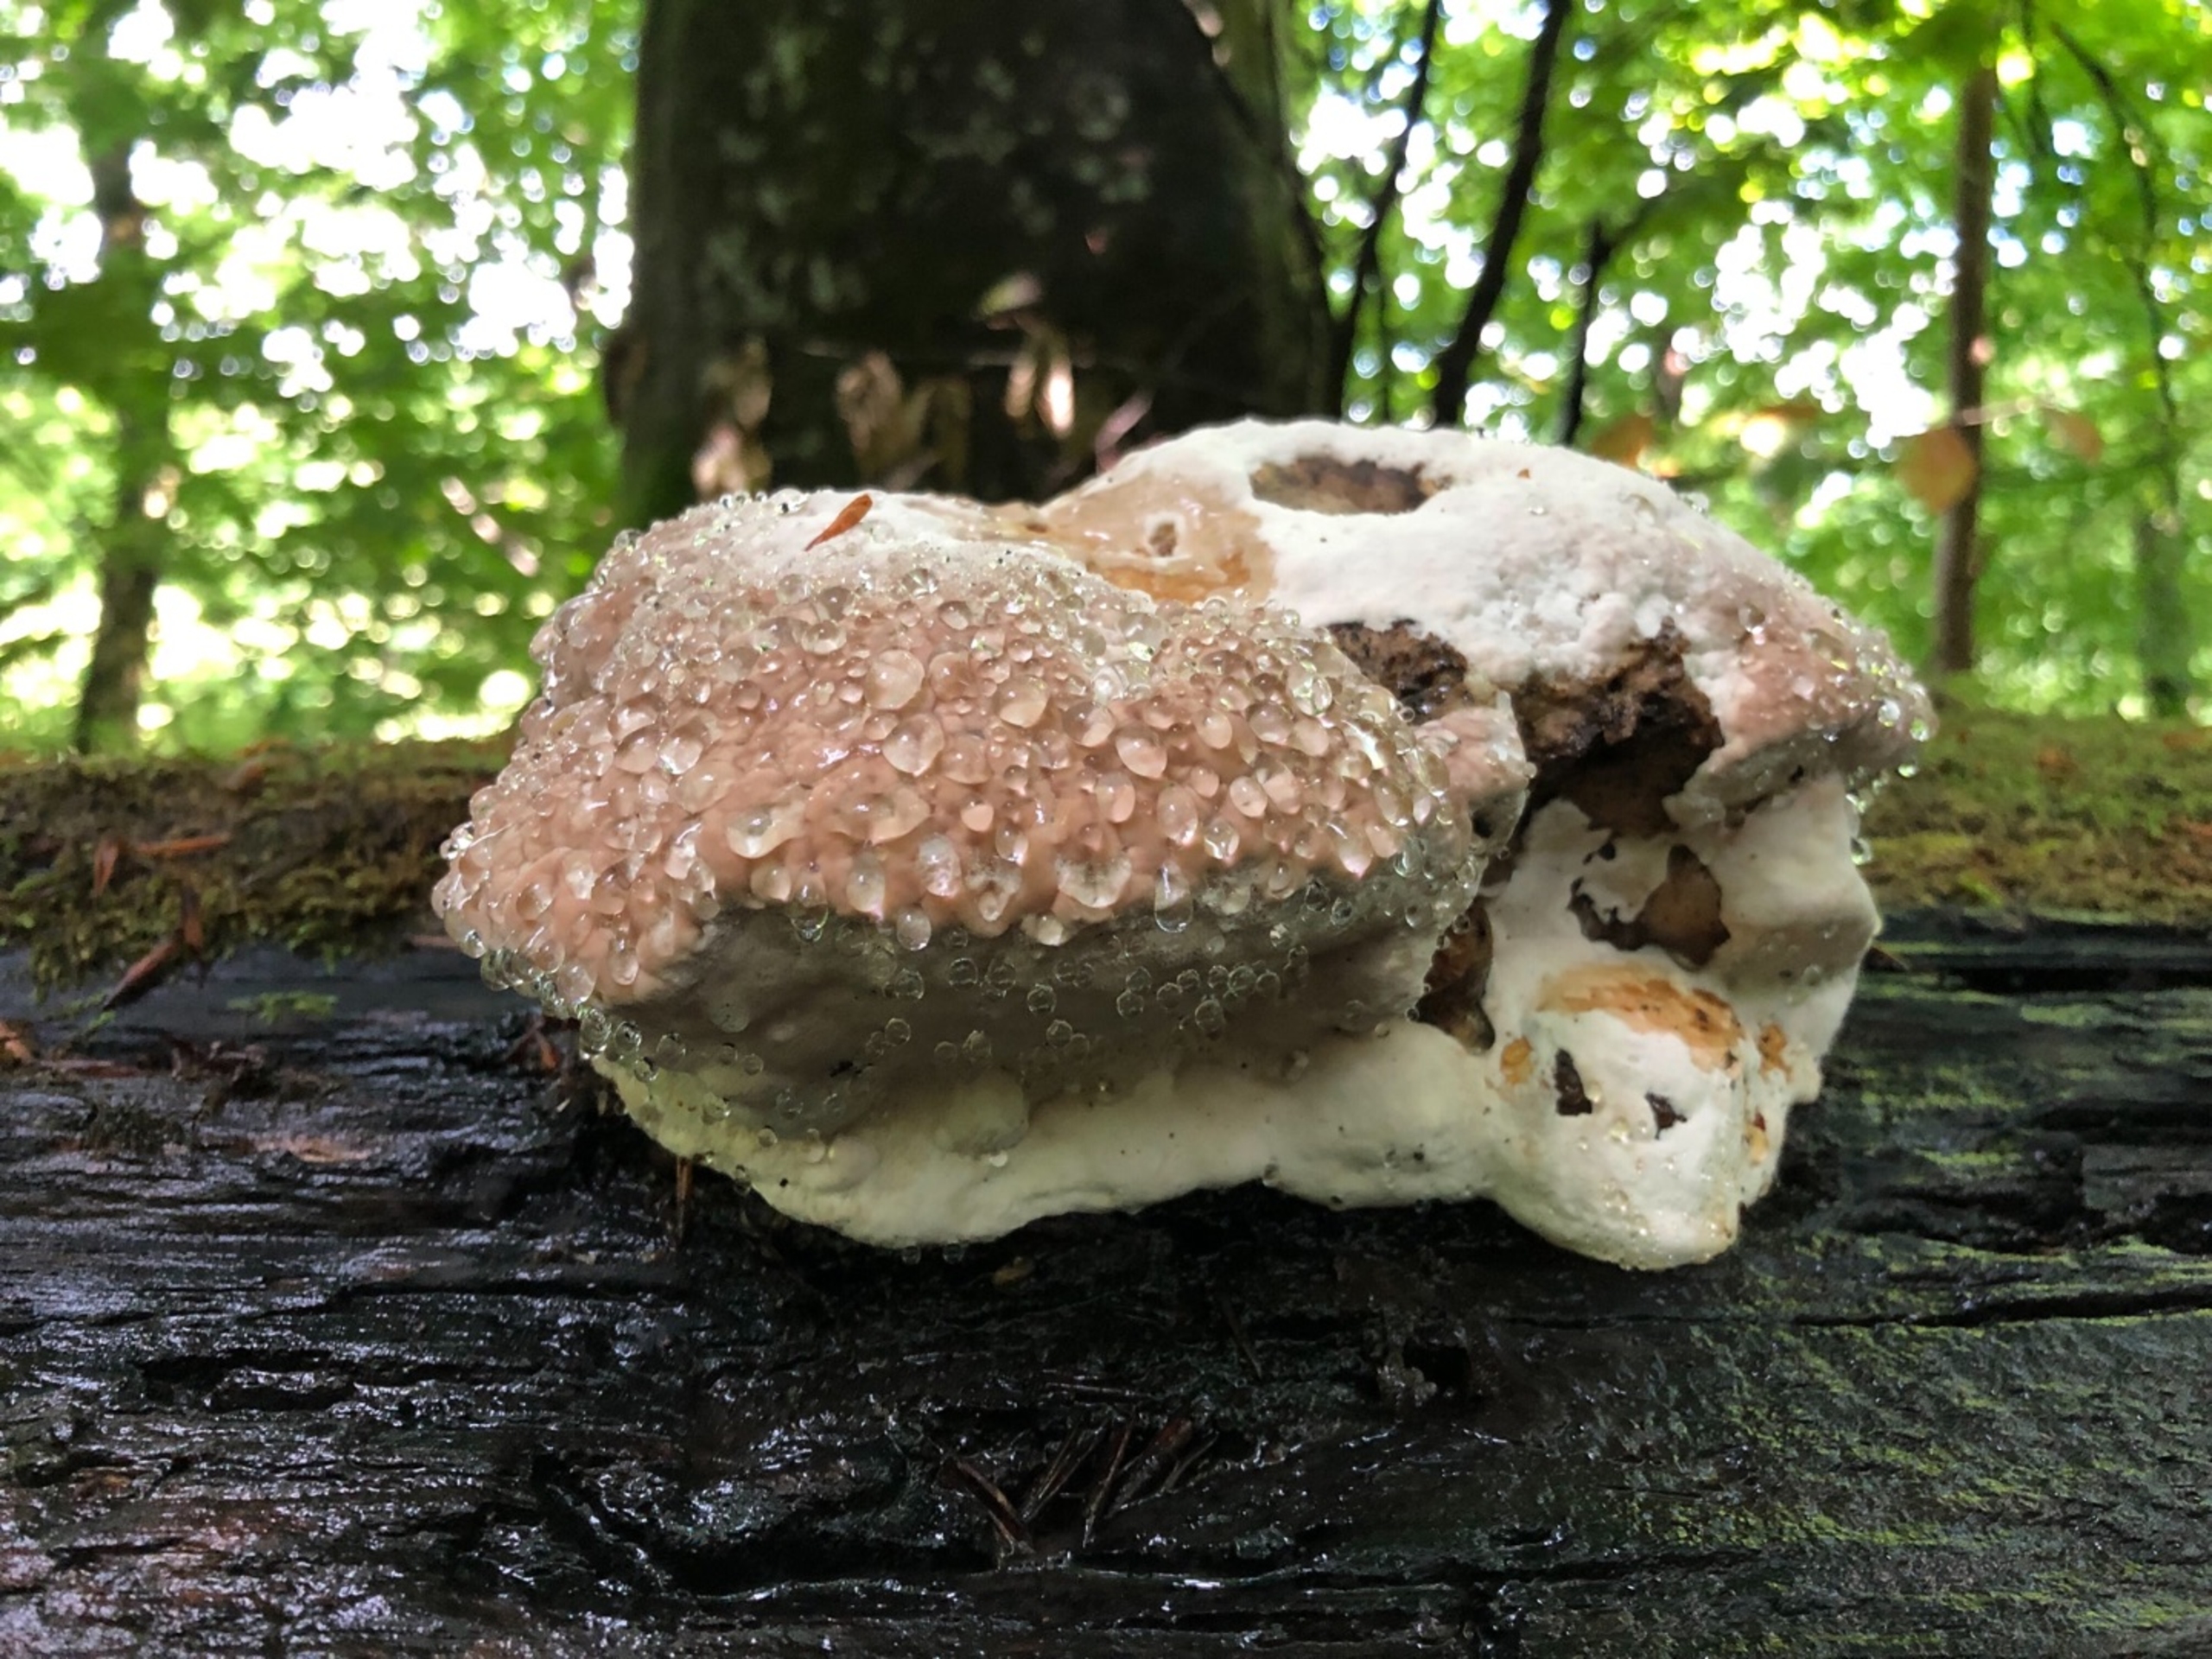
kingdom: Fungi
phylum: Basidiomycota
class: Agaricomycetes
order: Polyporales
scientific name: Polyporales
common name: Poresvampordenen
